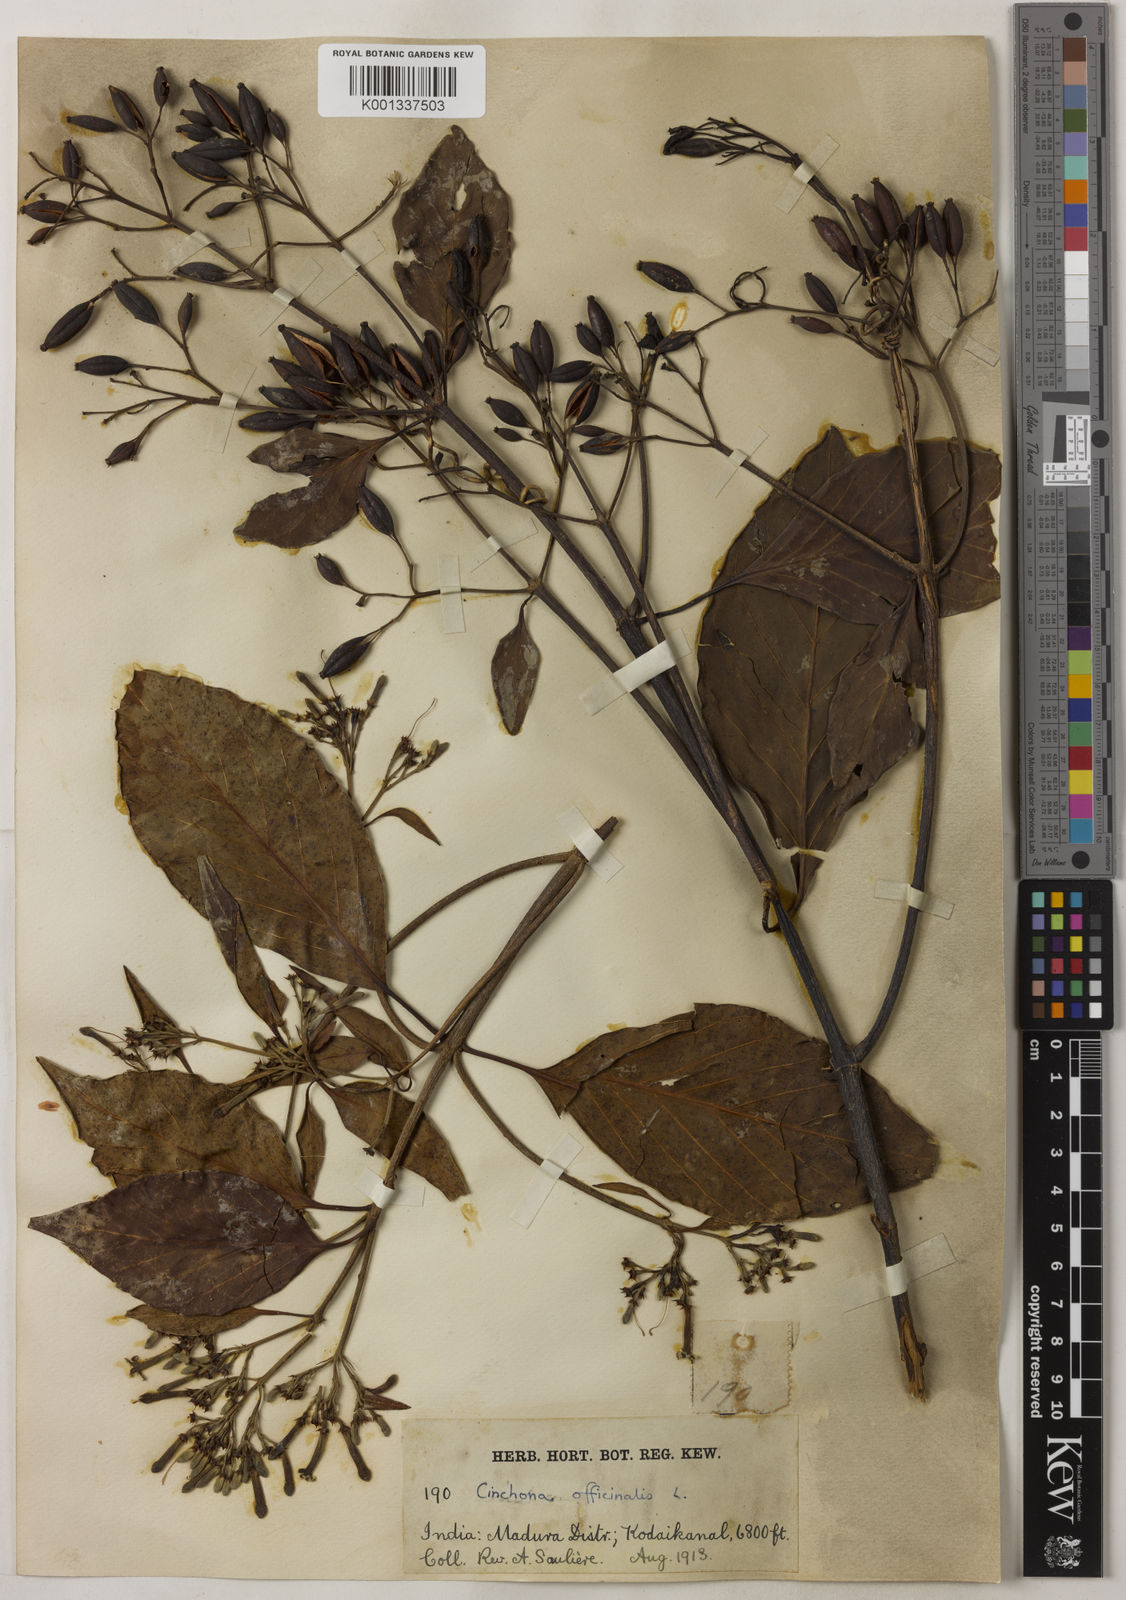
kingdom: Plantae
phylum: Tracheophyta
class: Magnoliopsida
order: Gentianales
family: Rubiaceae
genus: Cinchona
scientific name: Cinchona officinalis
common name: Lojabark
